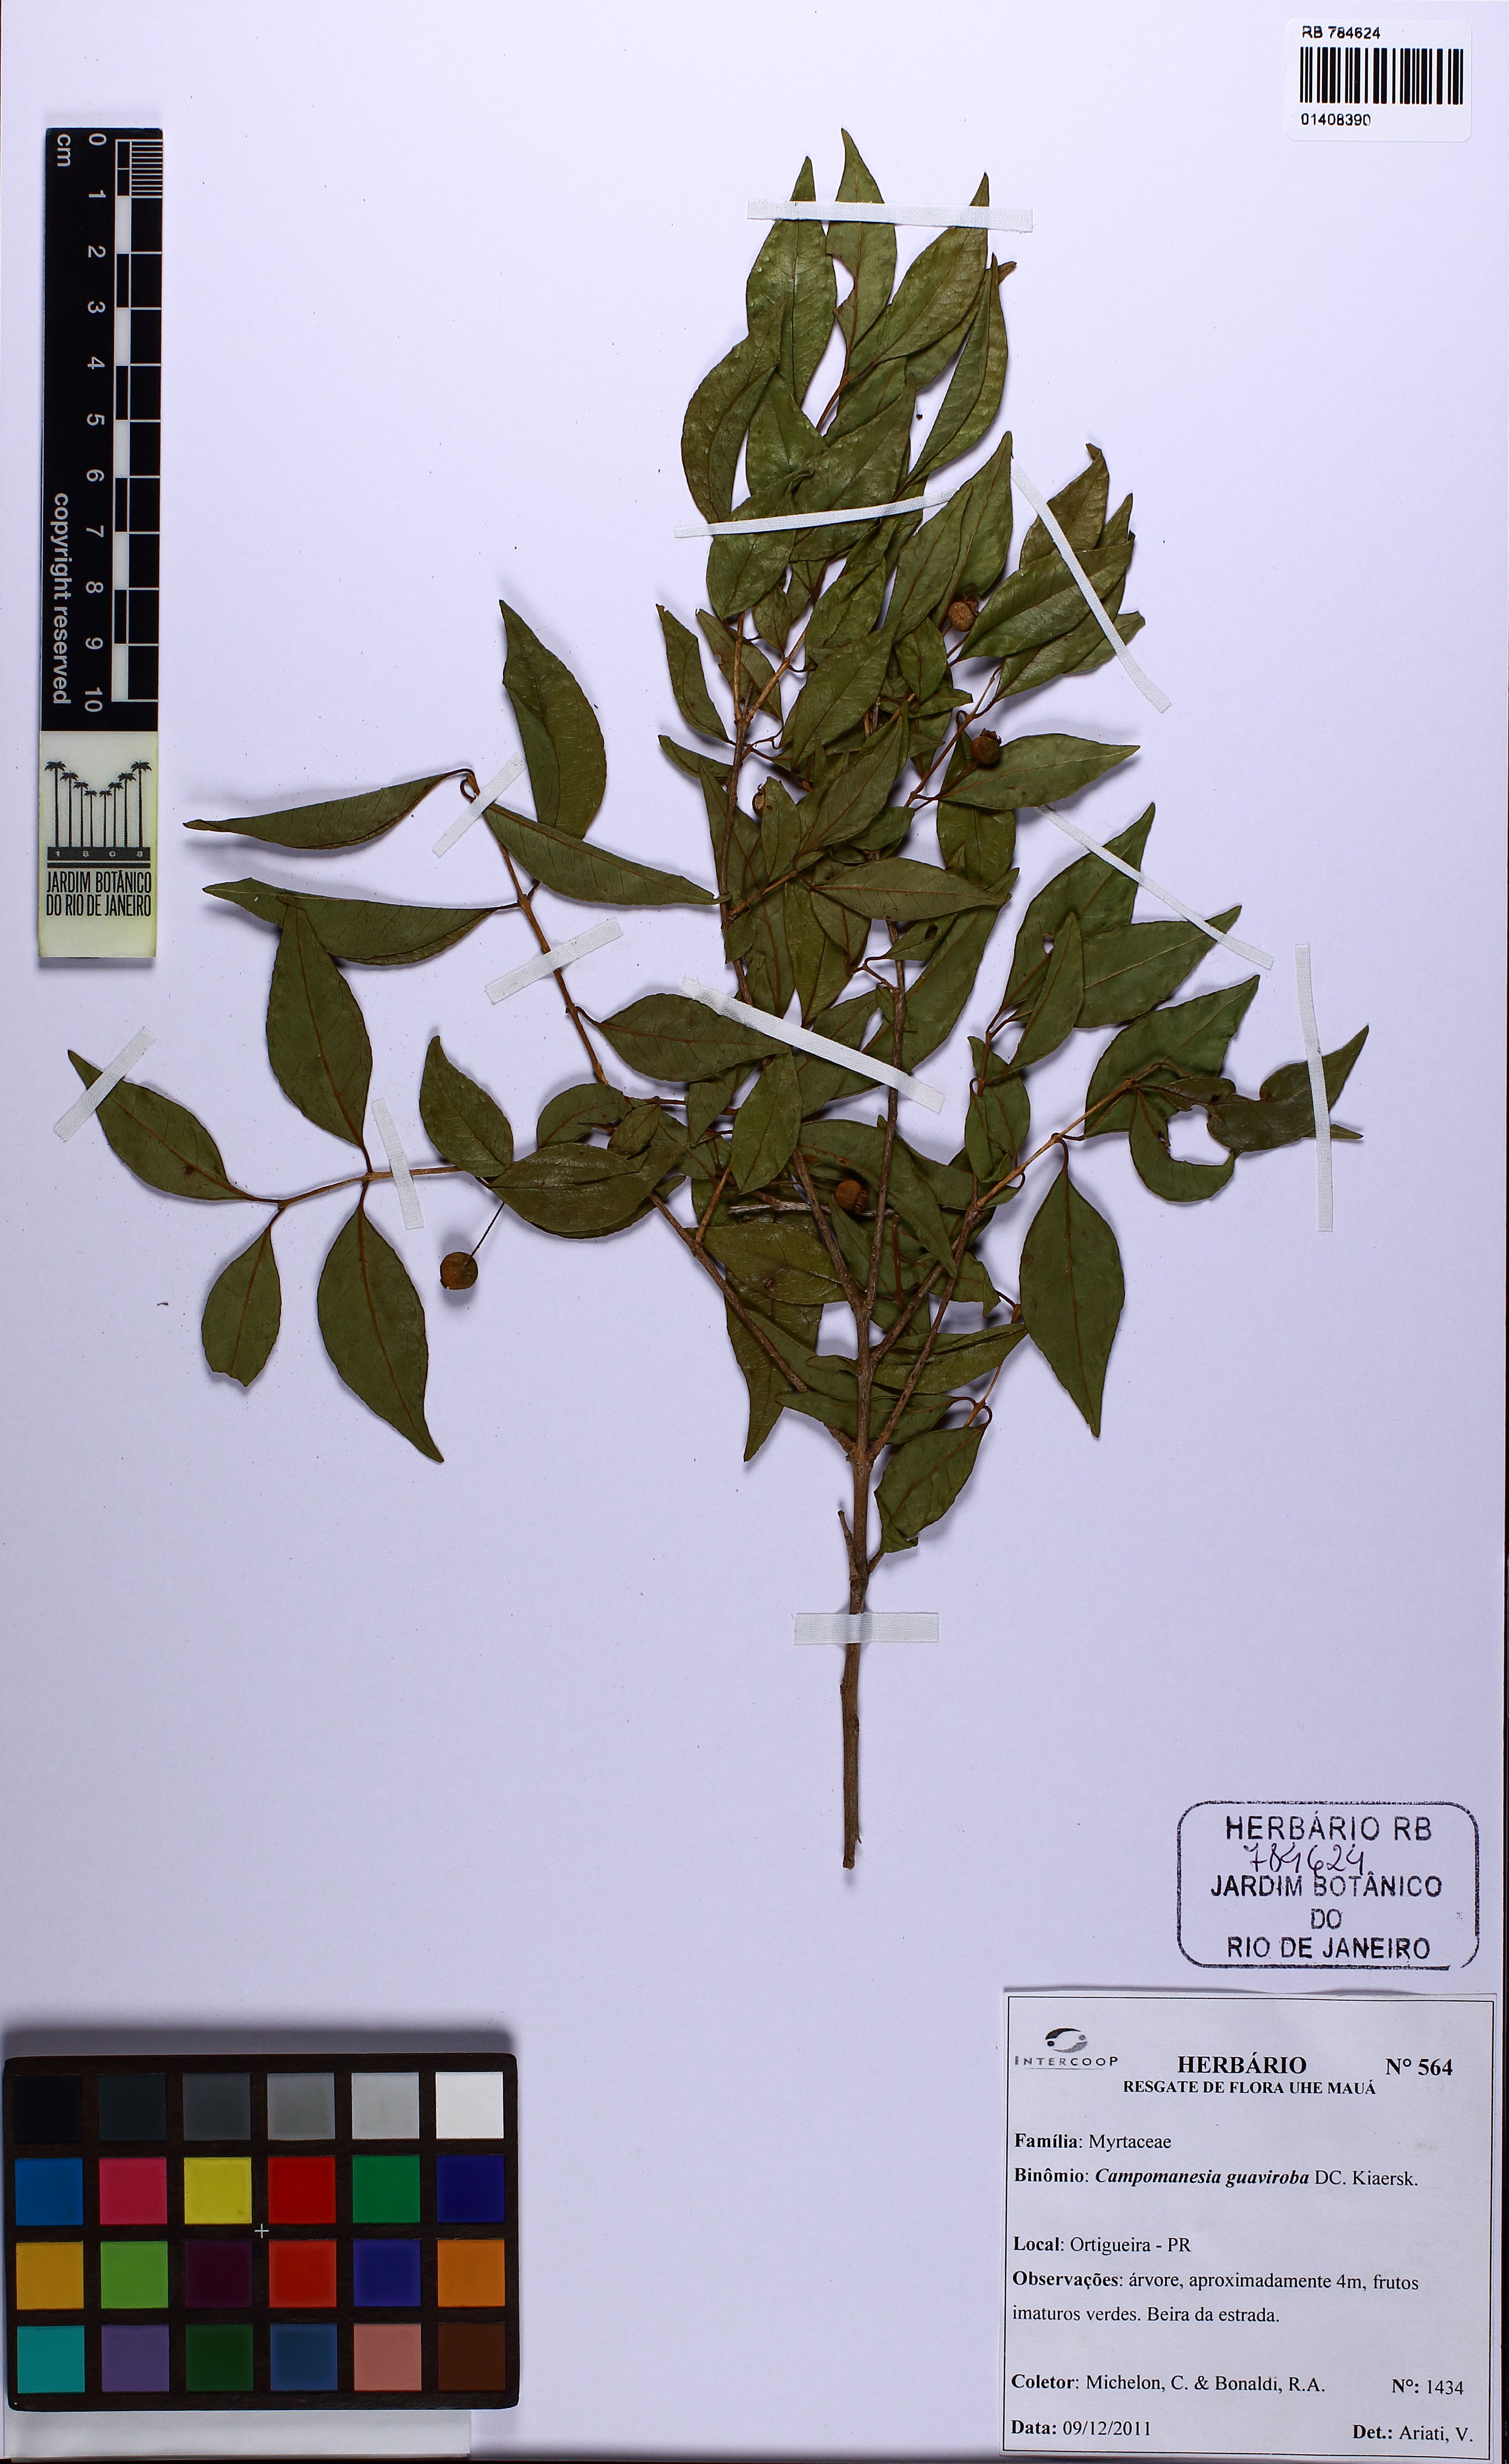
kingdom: Plantae
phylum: Tracheophyta
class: Magnoliopsida
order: Myrtales
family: Myrtaceae
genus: Campomanesia
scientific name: Campomanesia guaviroba
